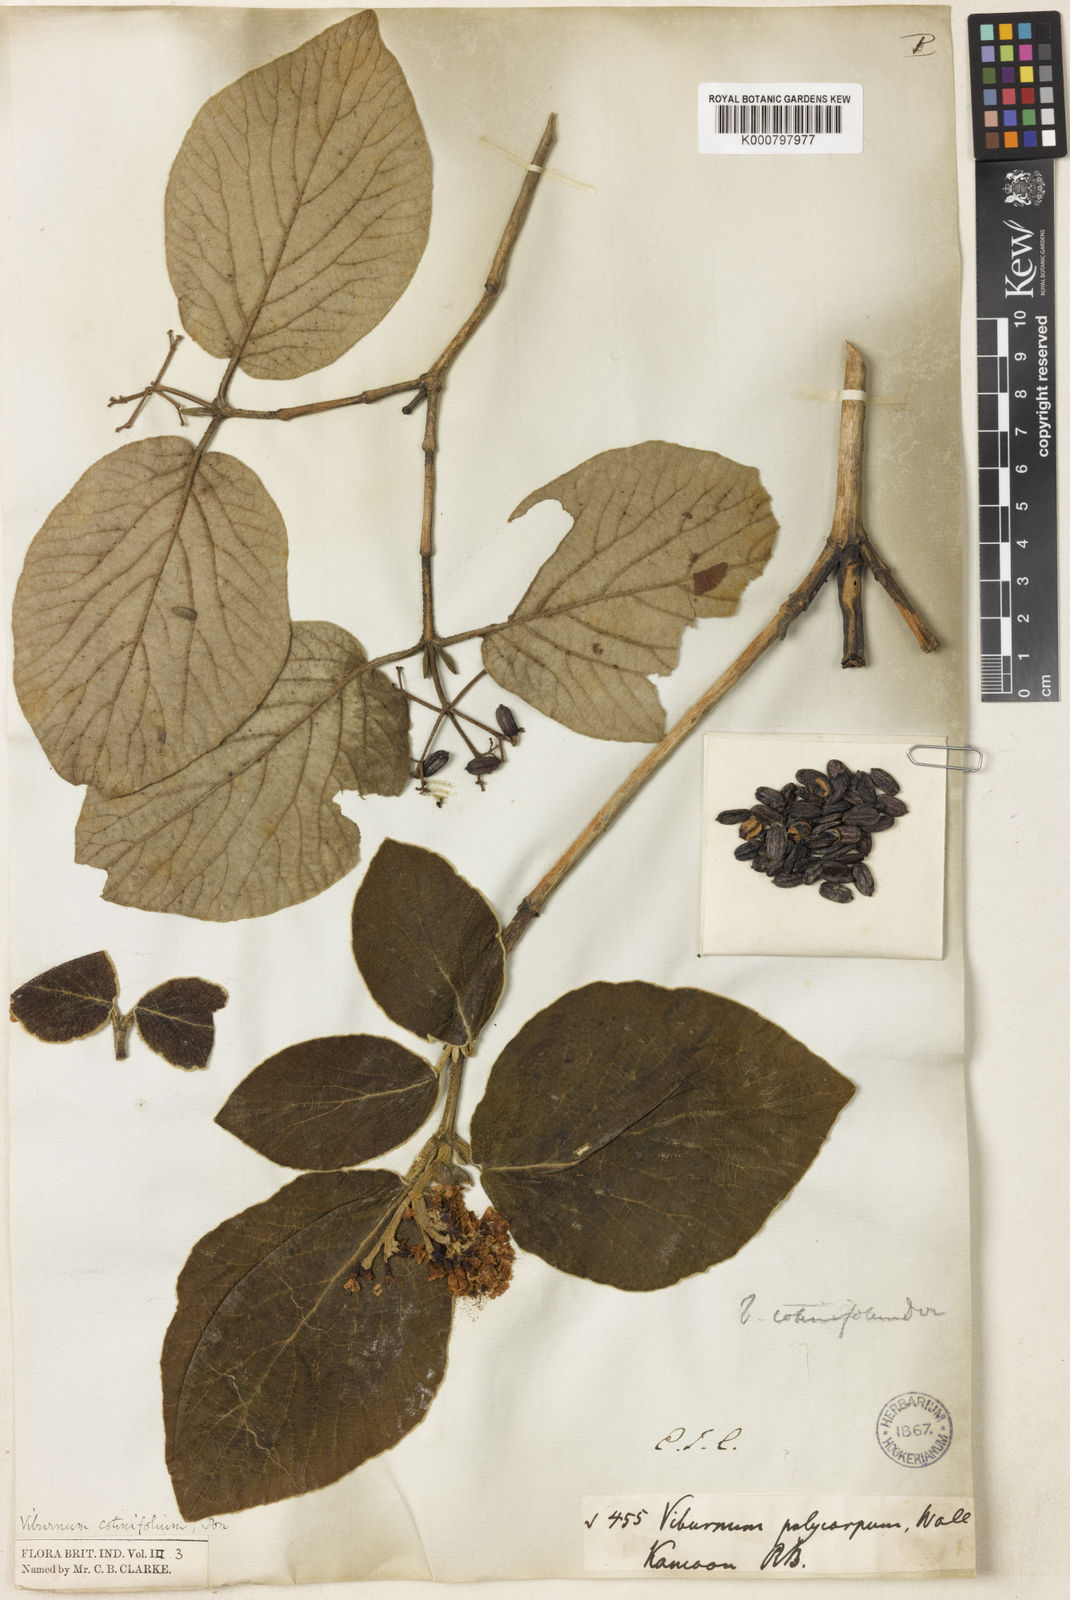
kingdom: Plantae
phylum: Tracheophyta
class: Magnoliopsida
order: Dipsacales
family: Viburnaceae
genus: Viburnum
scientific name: Viburnum cotinifolium
